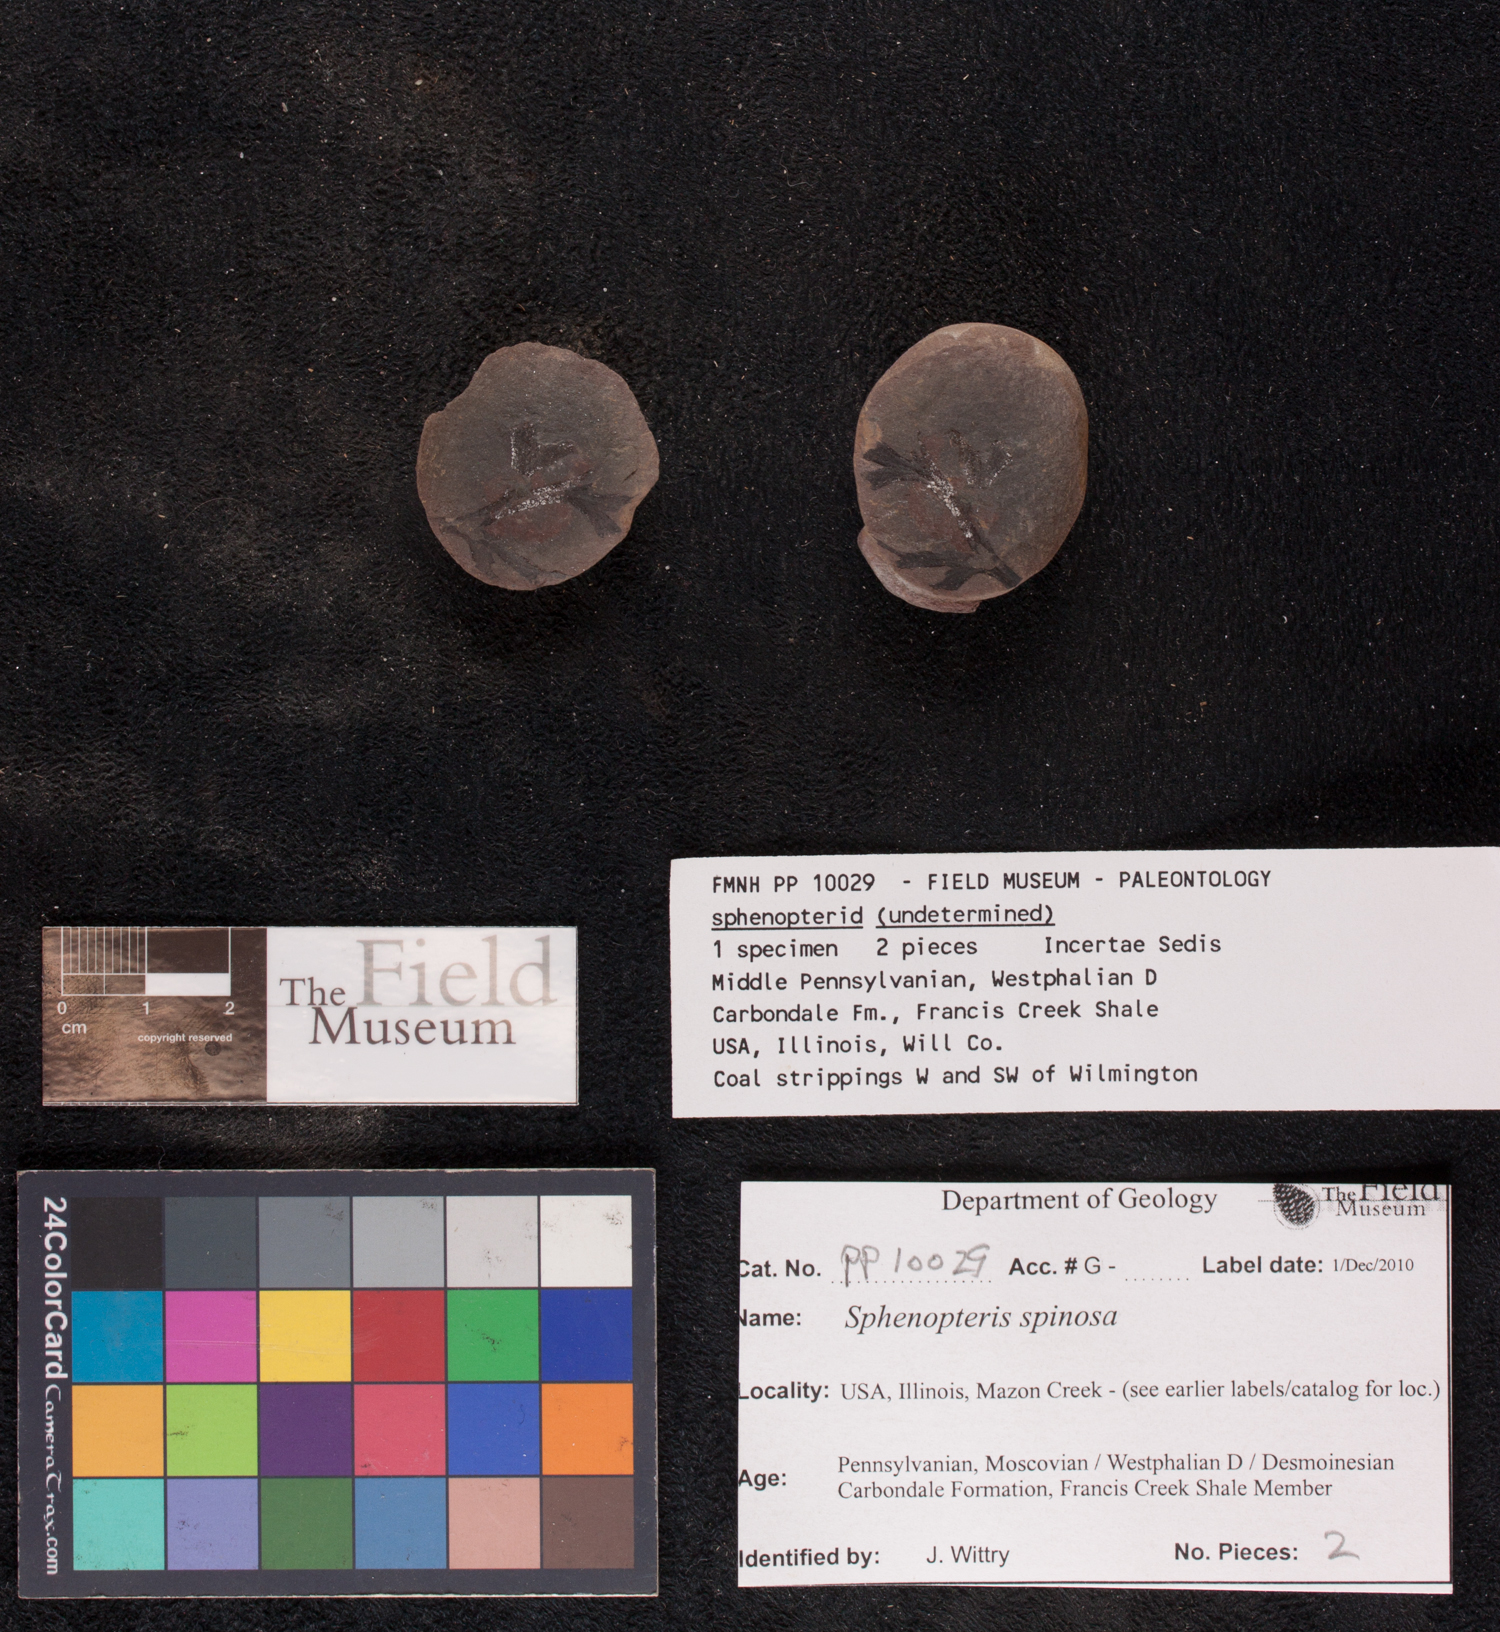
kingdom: Plantae
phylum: Tracheophyta
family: Lyginopteridaceae
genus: Sphenopteris
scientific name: Sphenopteris
